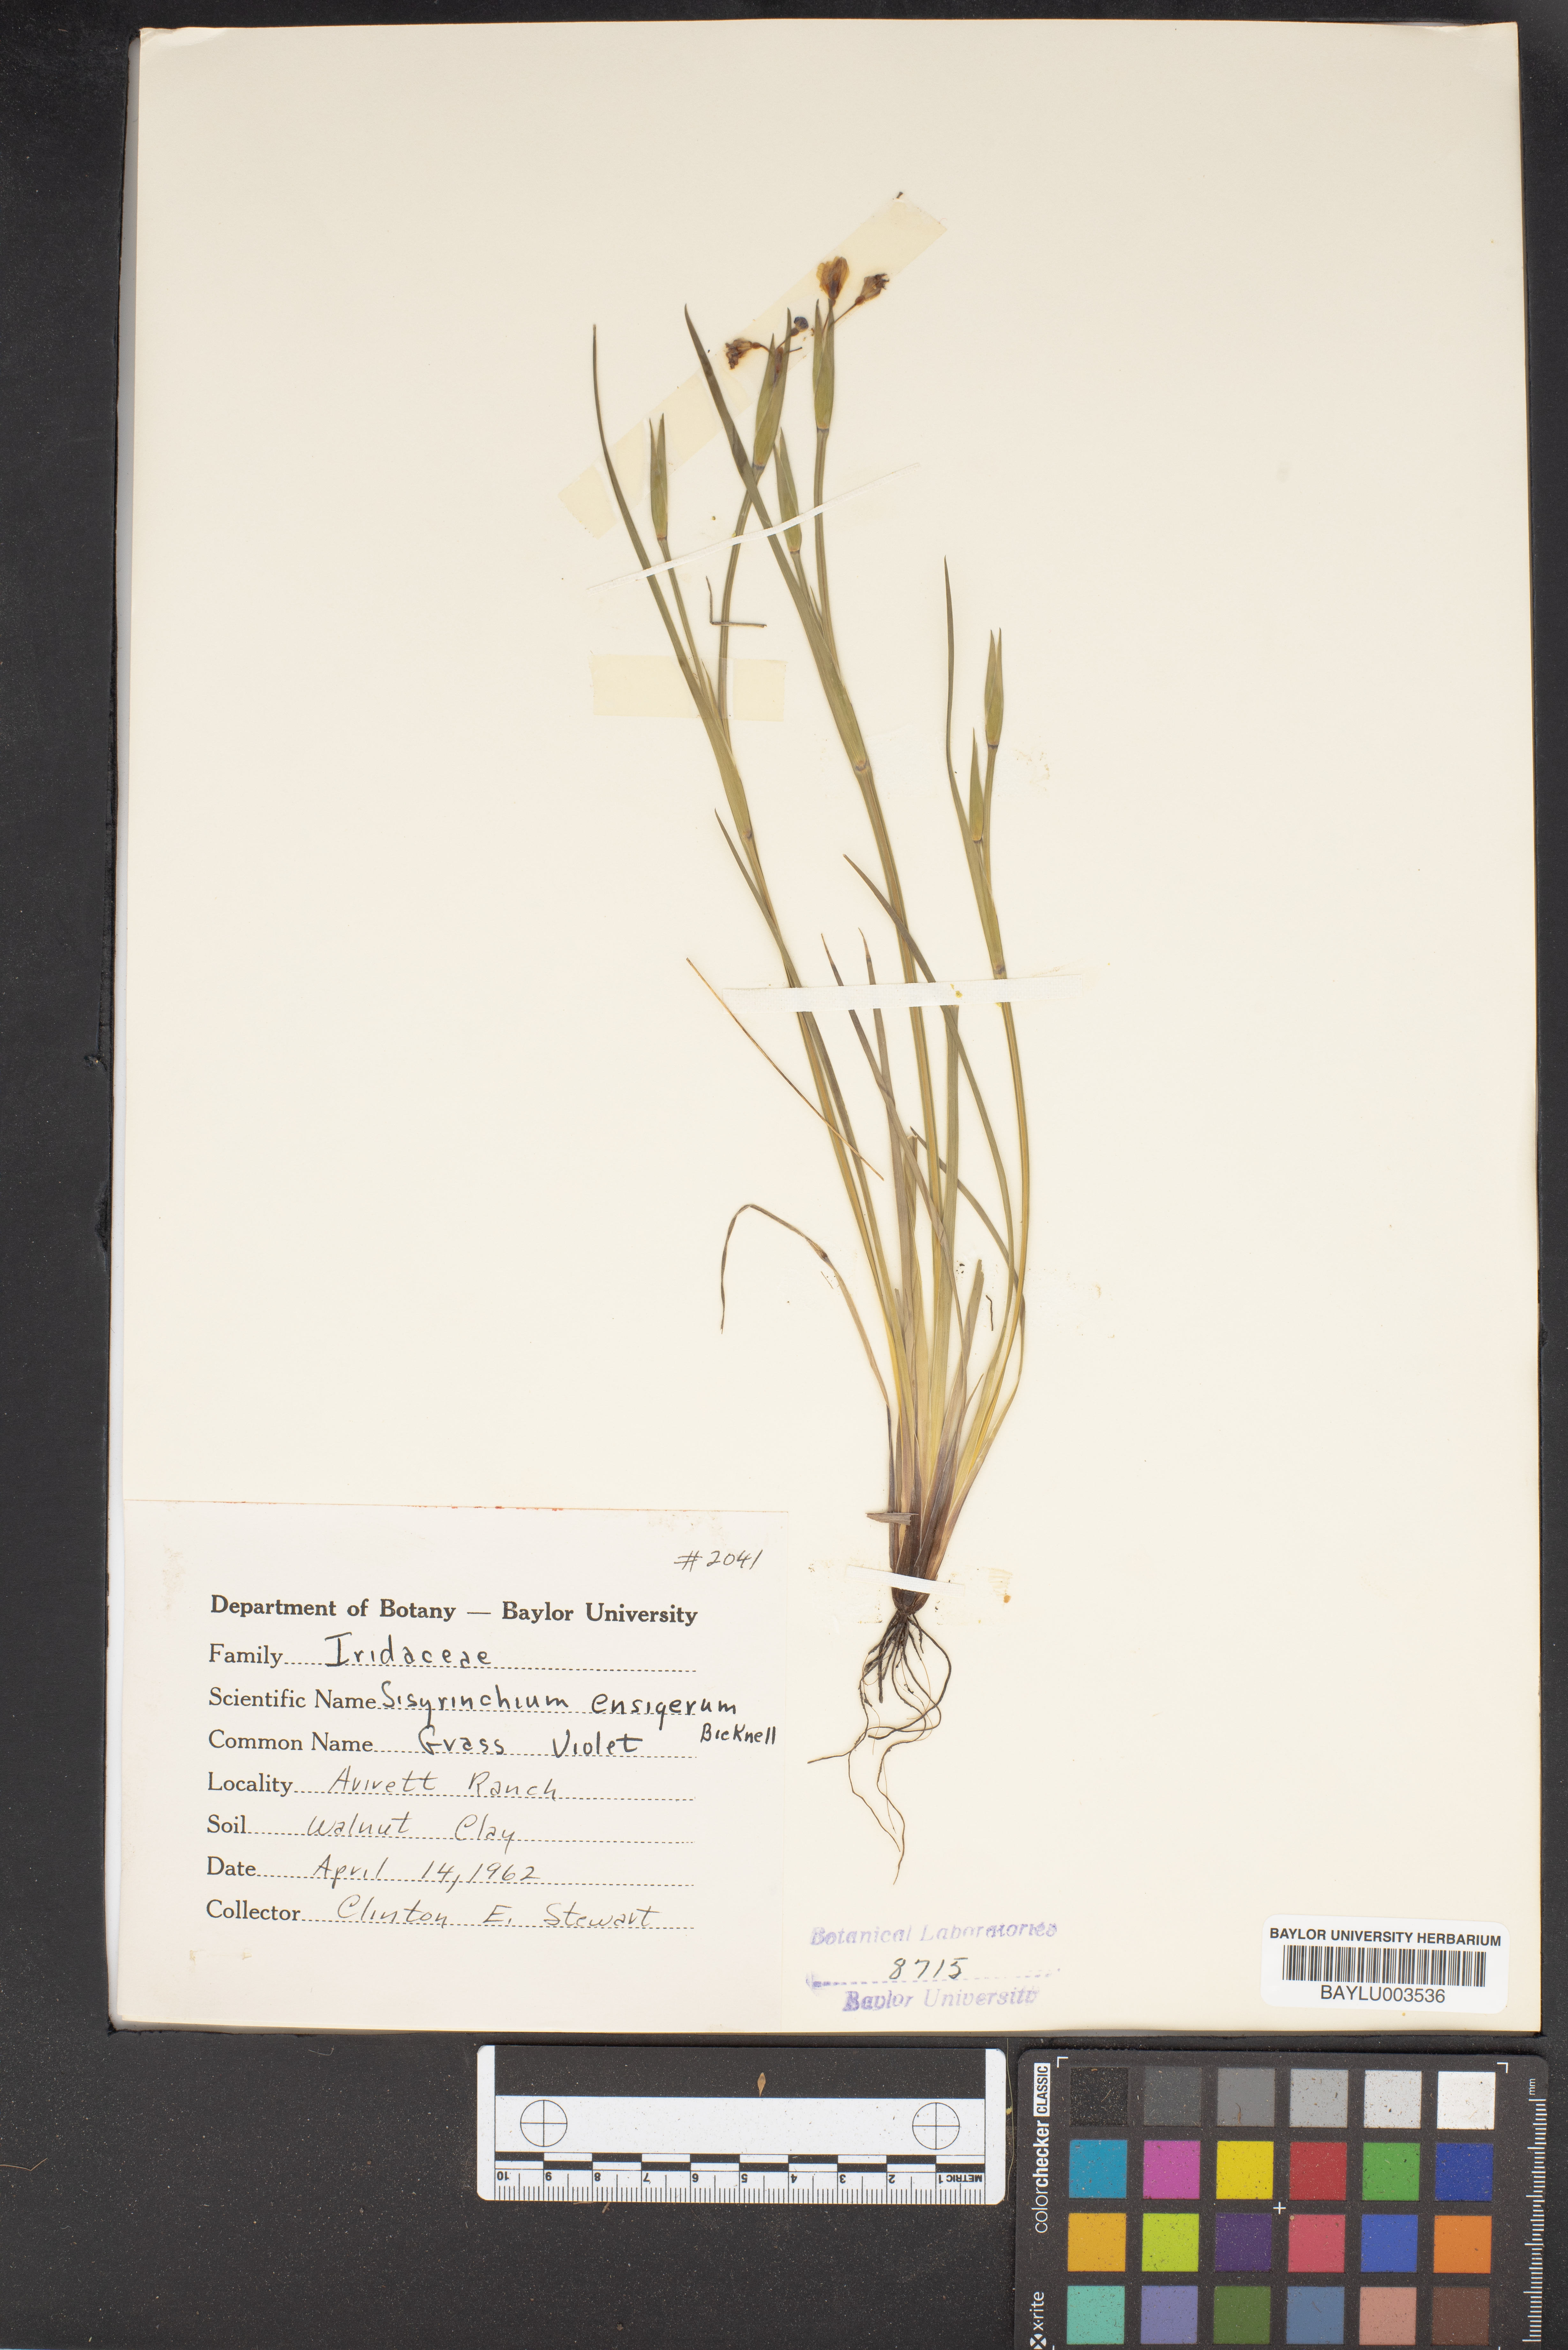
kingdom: Plantae
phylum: Tracheophyta
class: Liliopsida
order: Asparagales
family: Iridaceae
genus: Sisyrinchium
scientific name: Sisyrinchium ensigerum
